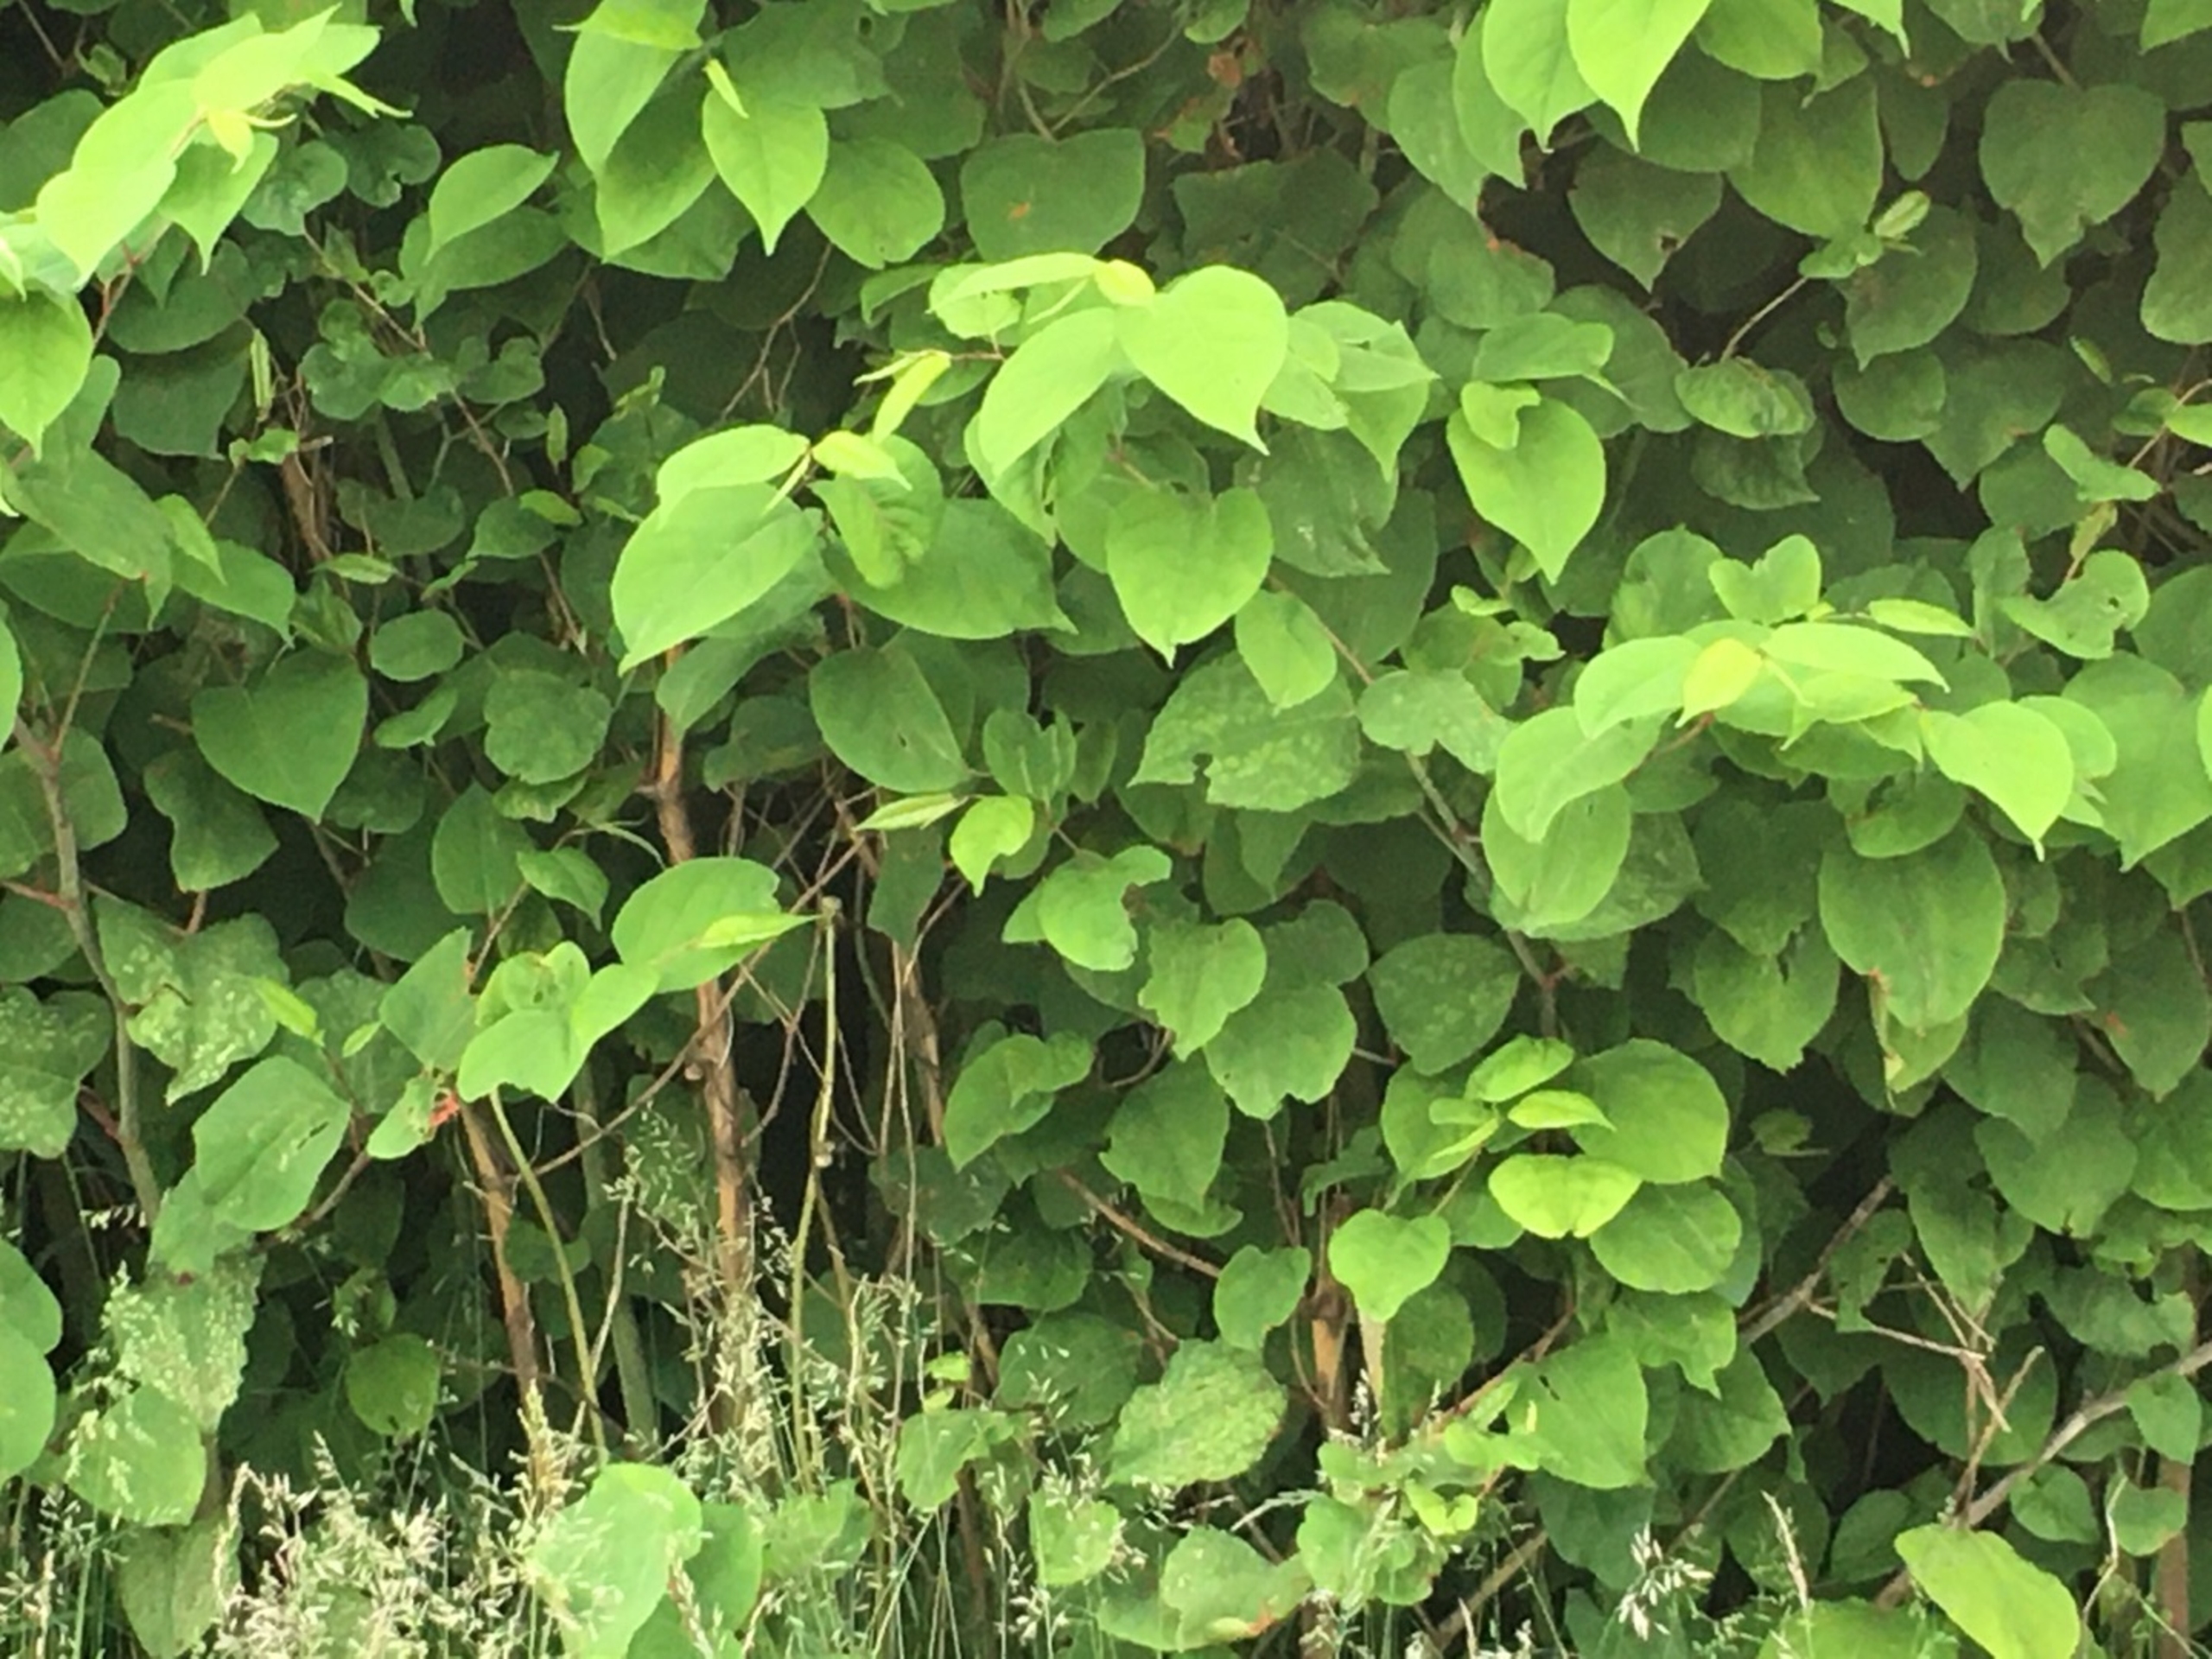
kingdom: Plantae
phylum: Tracheophyta
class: Magnoliopsida
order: Caryophyllales
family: Polygonaceae
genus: Reynoutria
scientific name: Reynoutria japonica
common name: Japan-pileurt
